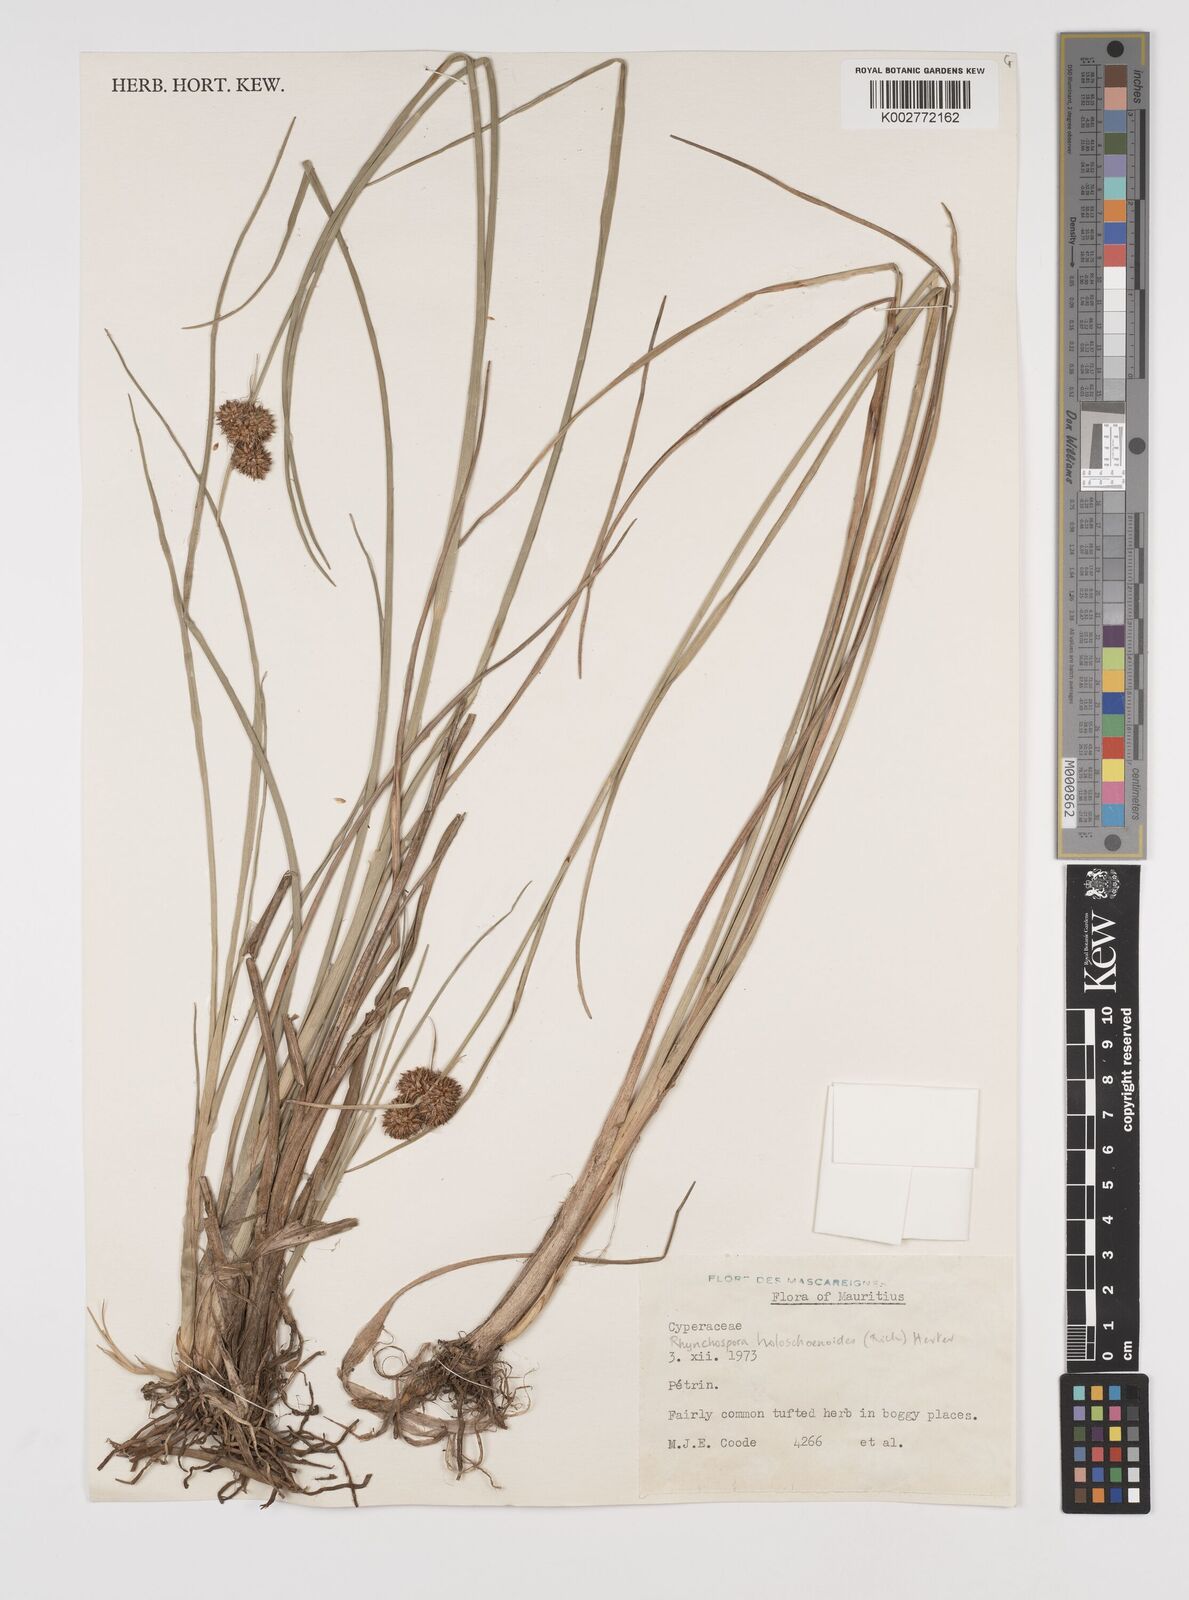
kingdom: Plantae
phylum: Tracheophyta
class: Liliopsida
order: Poales
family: Cyperaceae
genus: Rhynchospora
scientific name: Rhynchospora holoschoenoides
